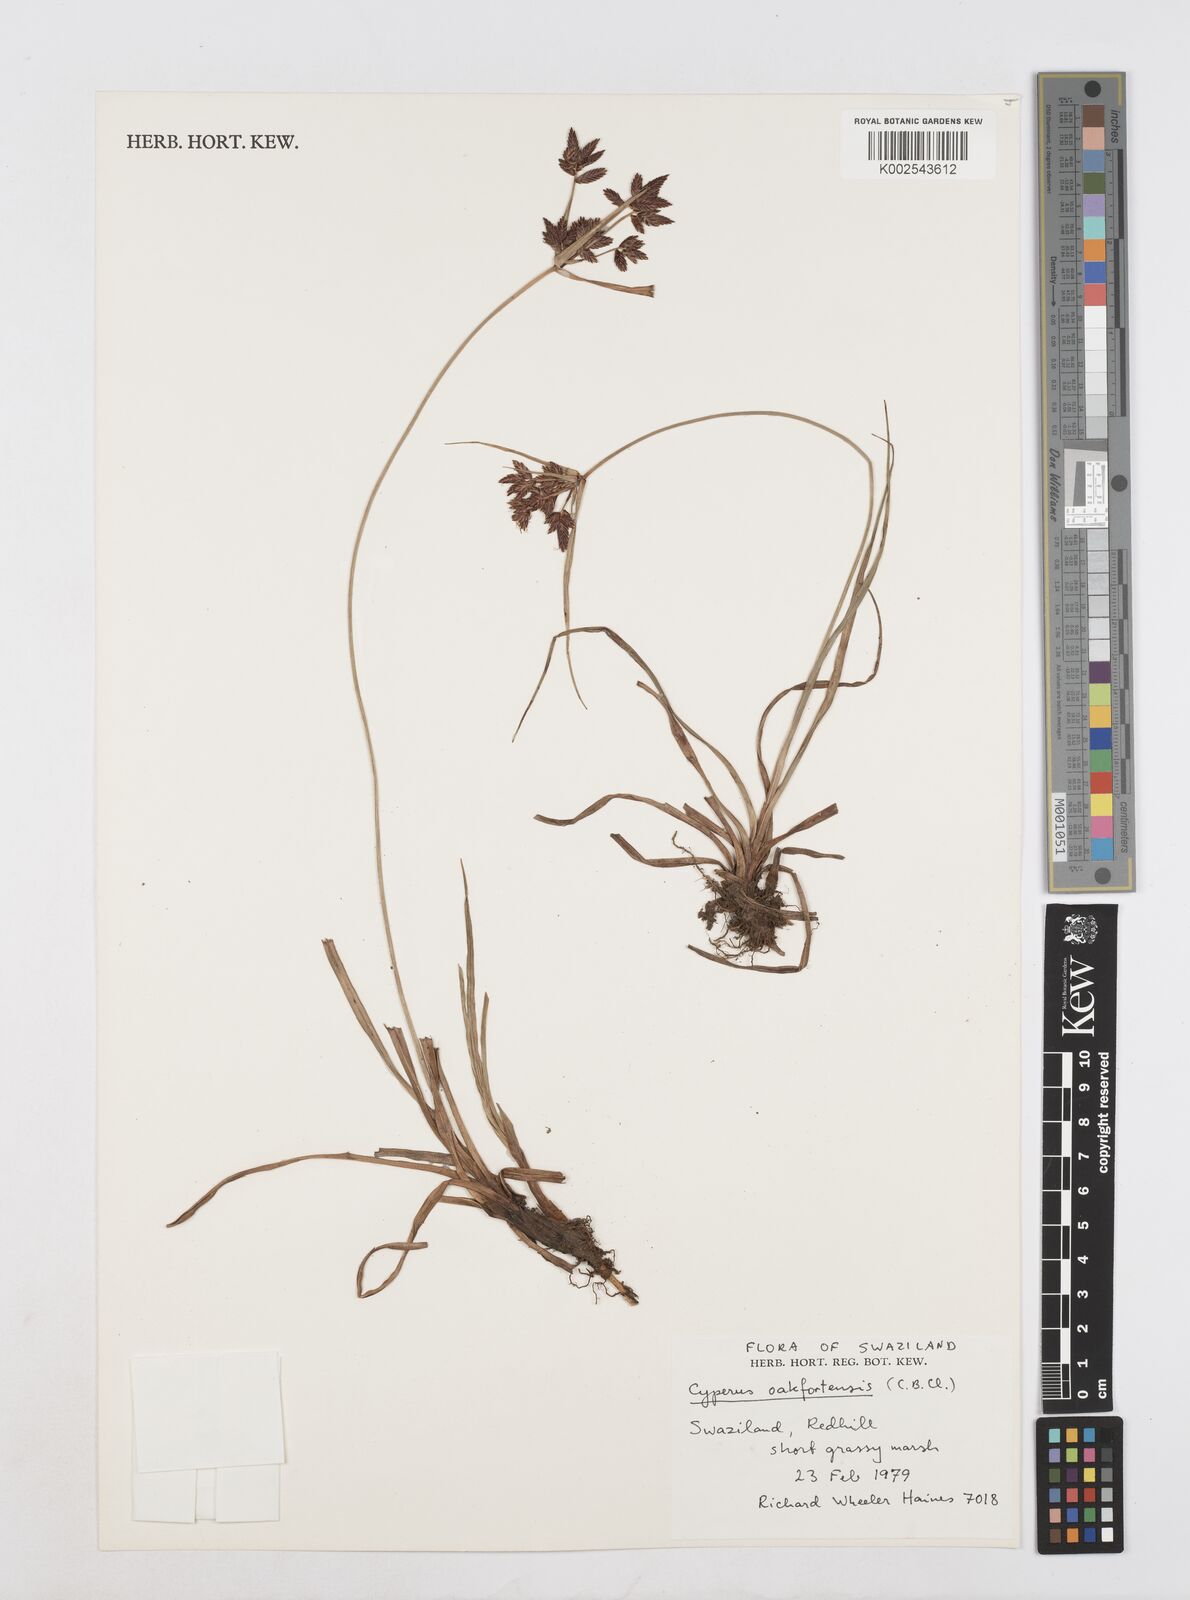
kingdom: Plantae
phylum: Tracheophyta
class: Liliopsida
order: Poales
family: Cyperaceae
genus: Cyperus
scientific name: Cyperus oakfortensis
